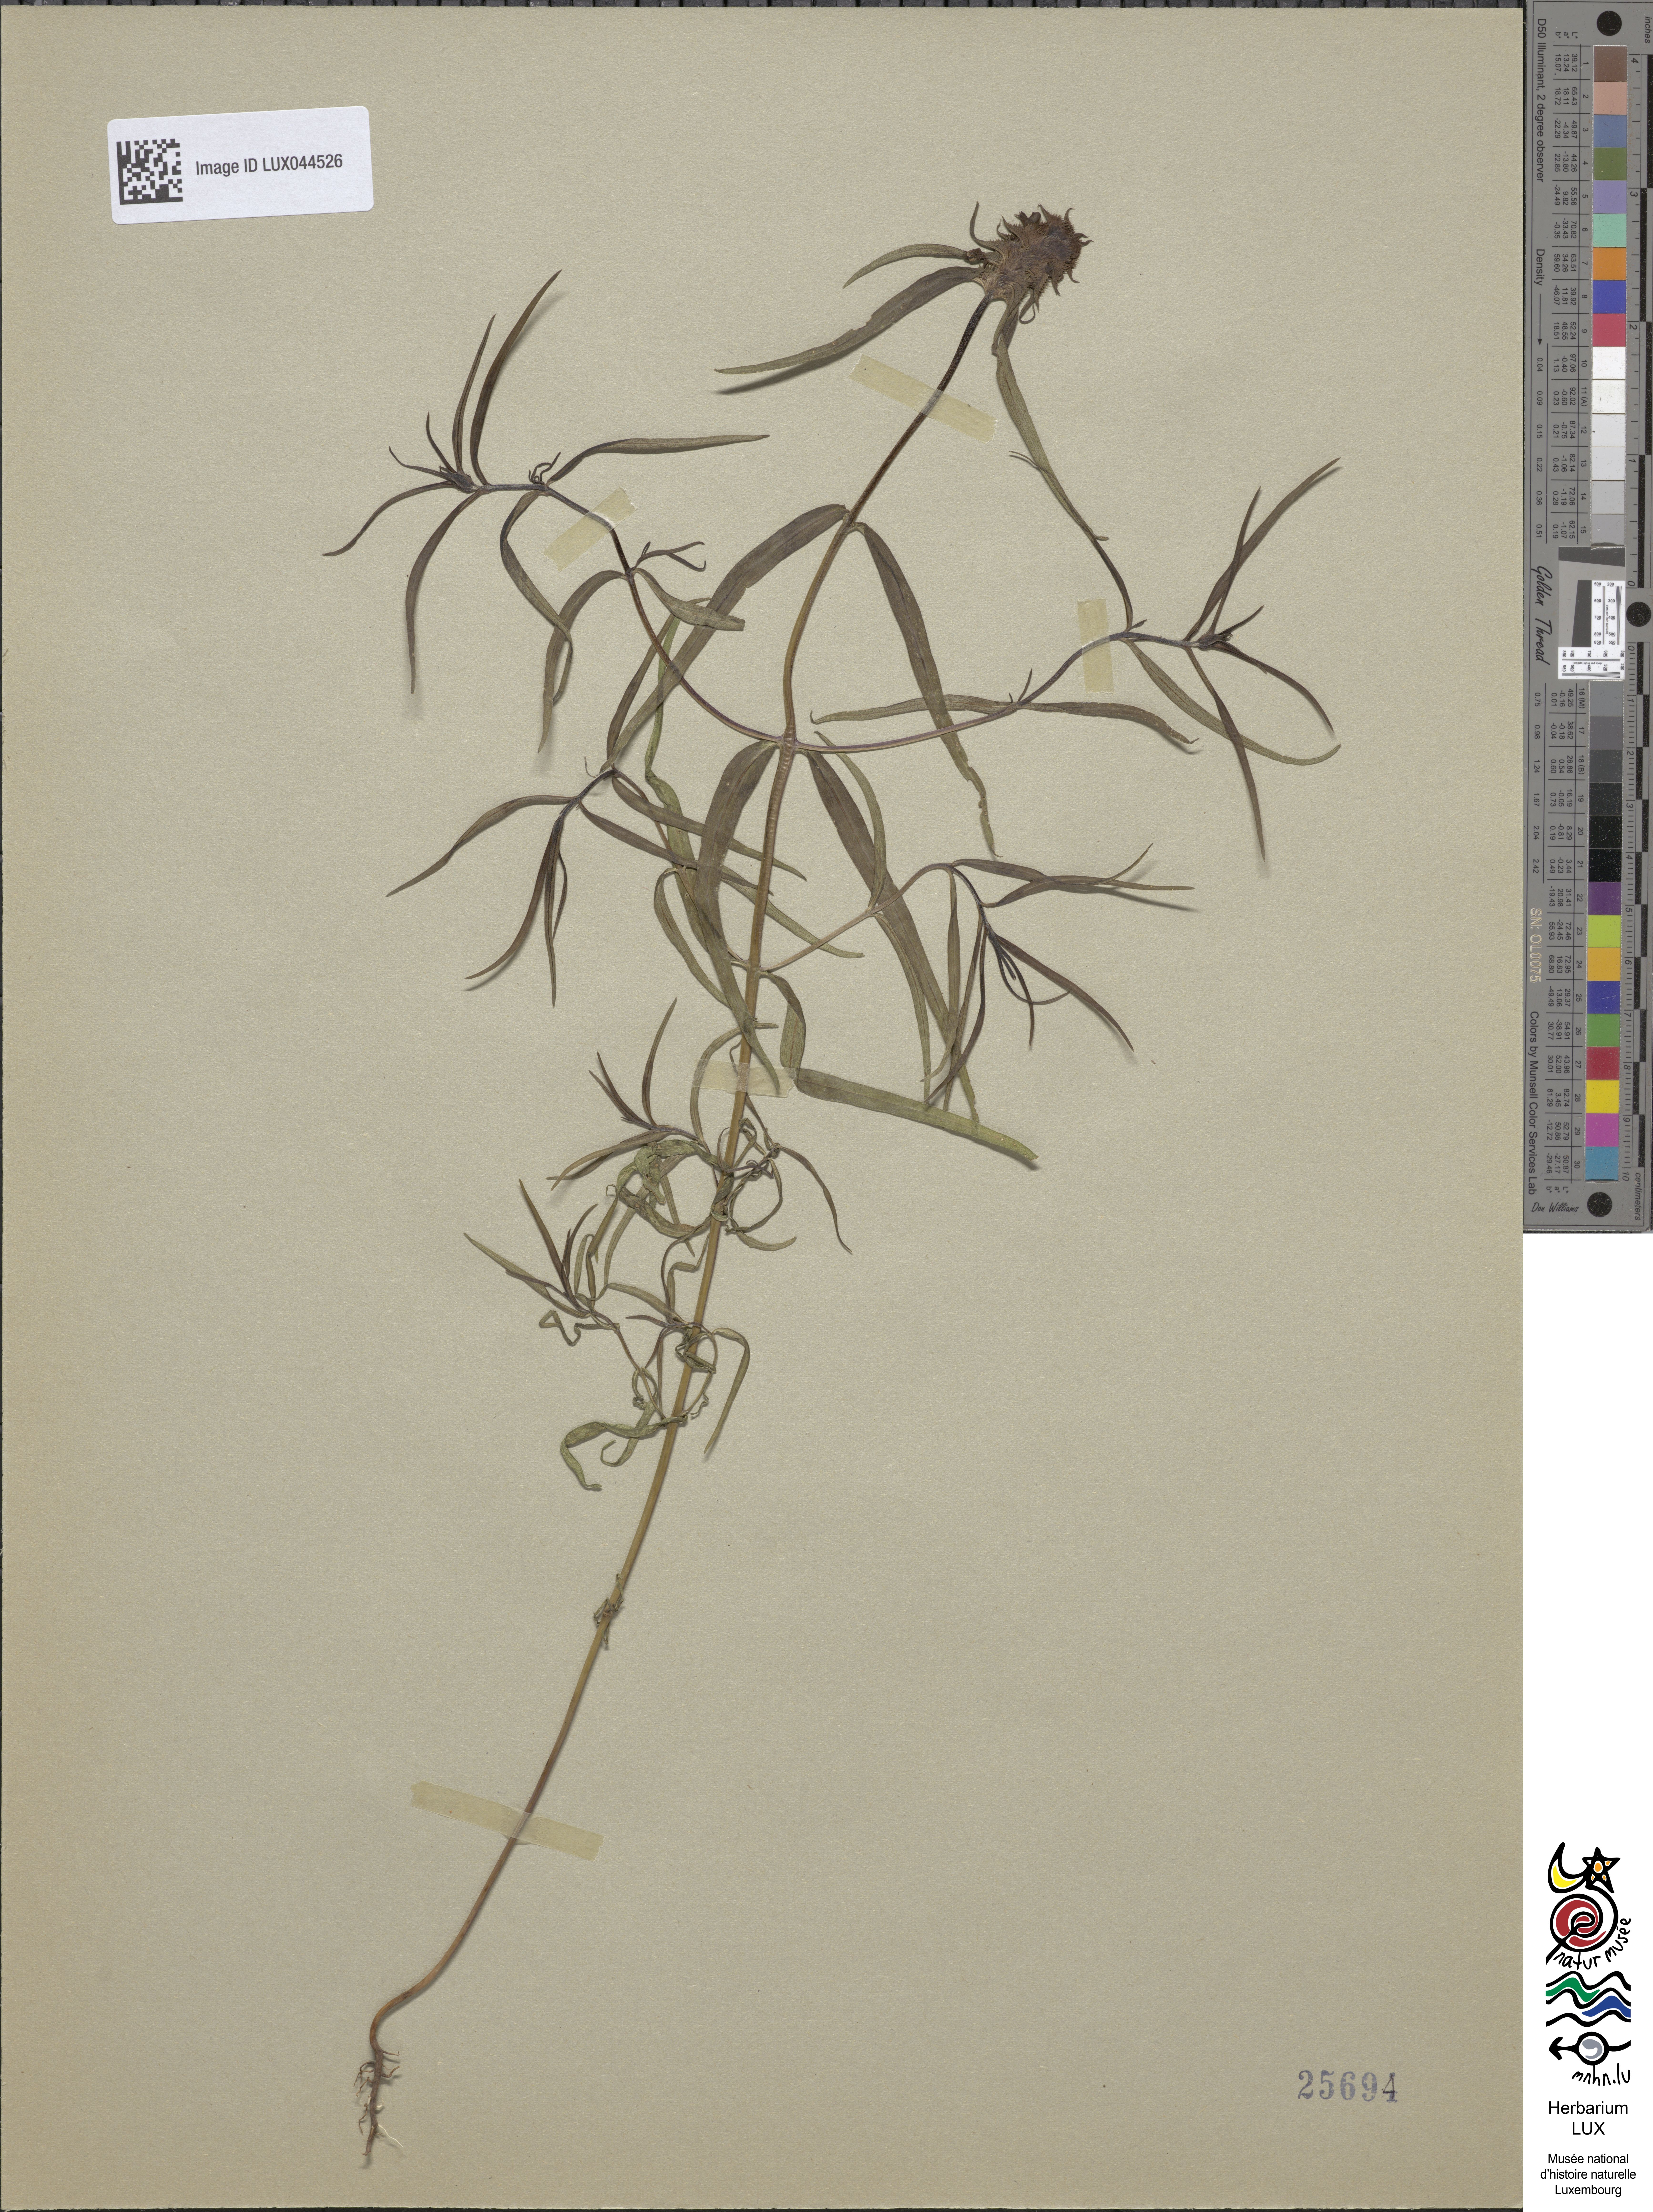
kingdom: Plantae
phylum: Tracheophyta
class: Magnoliopsida
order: Lamiales
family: Orobanchaceae
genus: Melampyrum
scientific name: Melampyrum cristatum
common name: Crested cow-wheat
